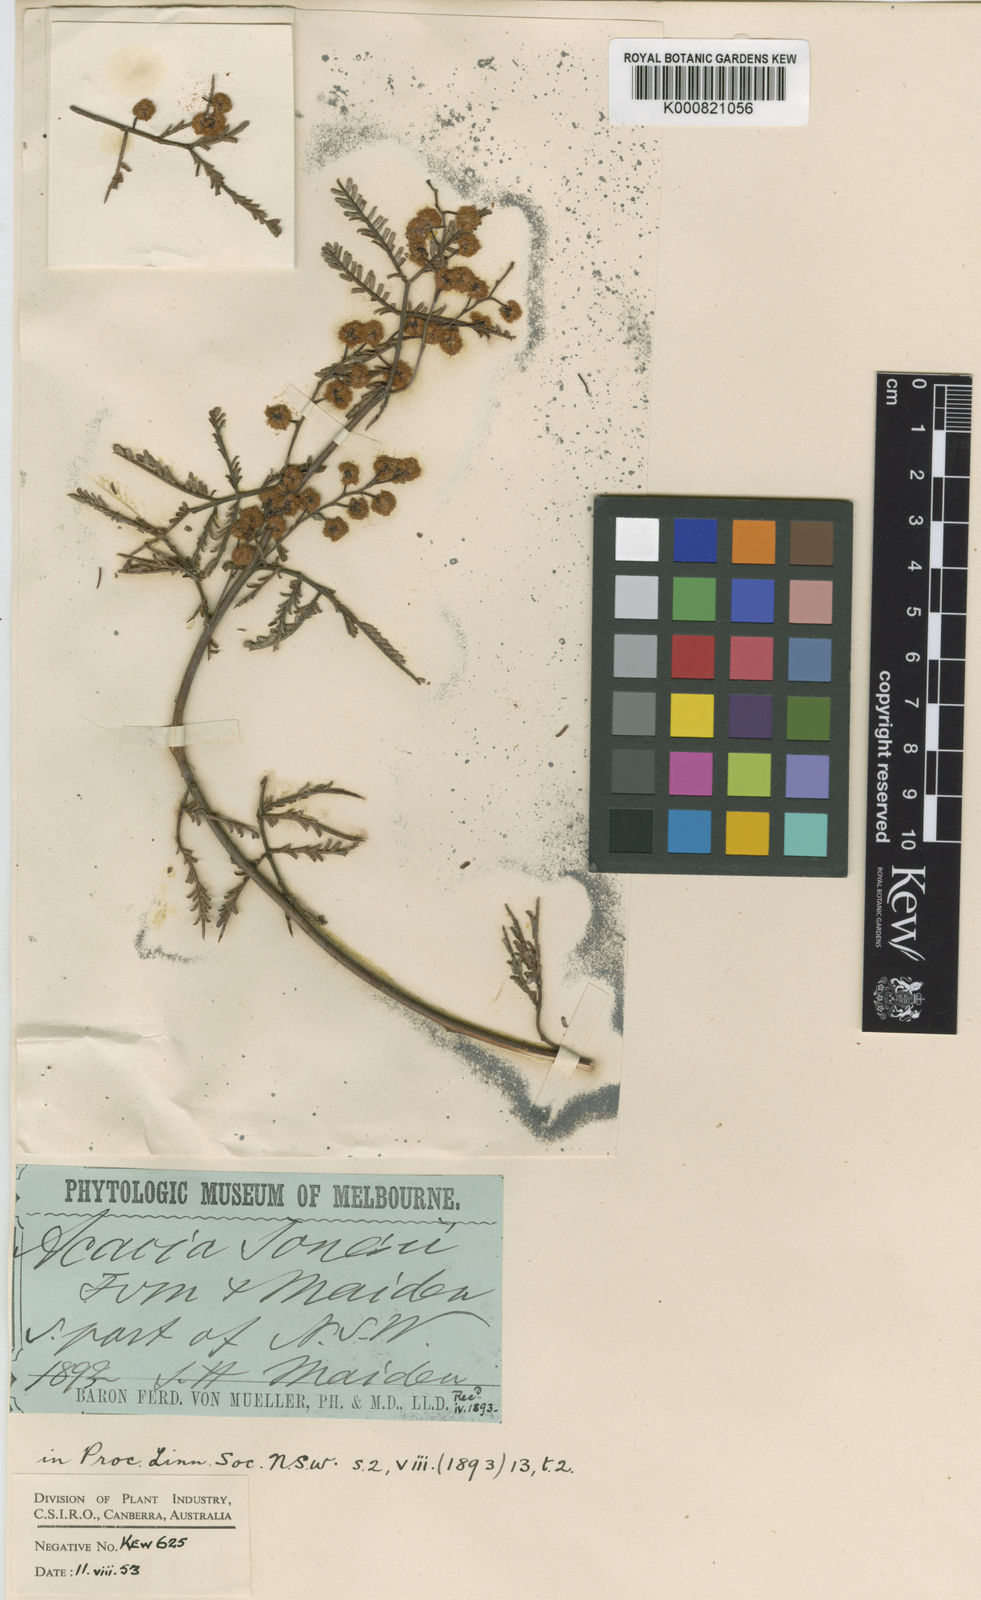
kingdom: Plantae
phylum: Tracheophyta
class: Magnoliopsida
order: Fabales
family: Fabaceae
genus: Acacia
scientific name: Acacia jonesii
